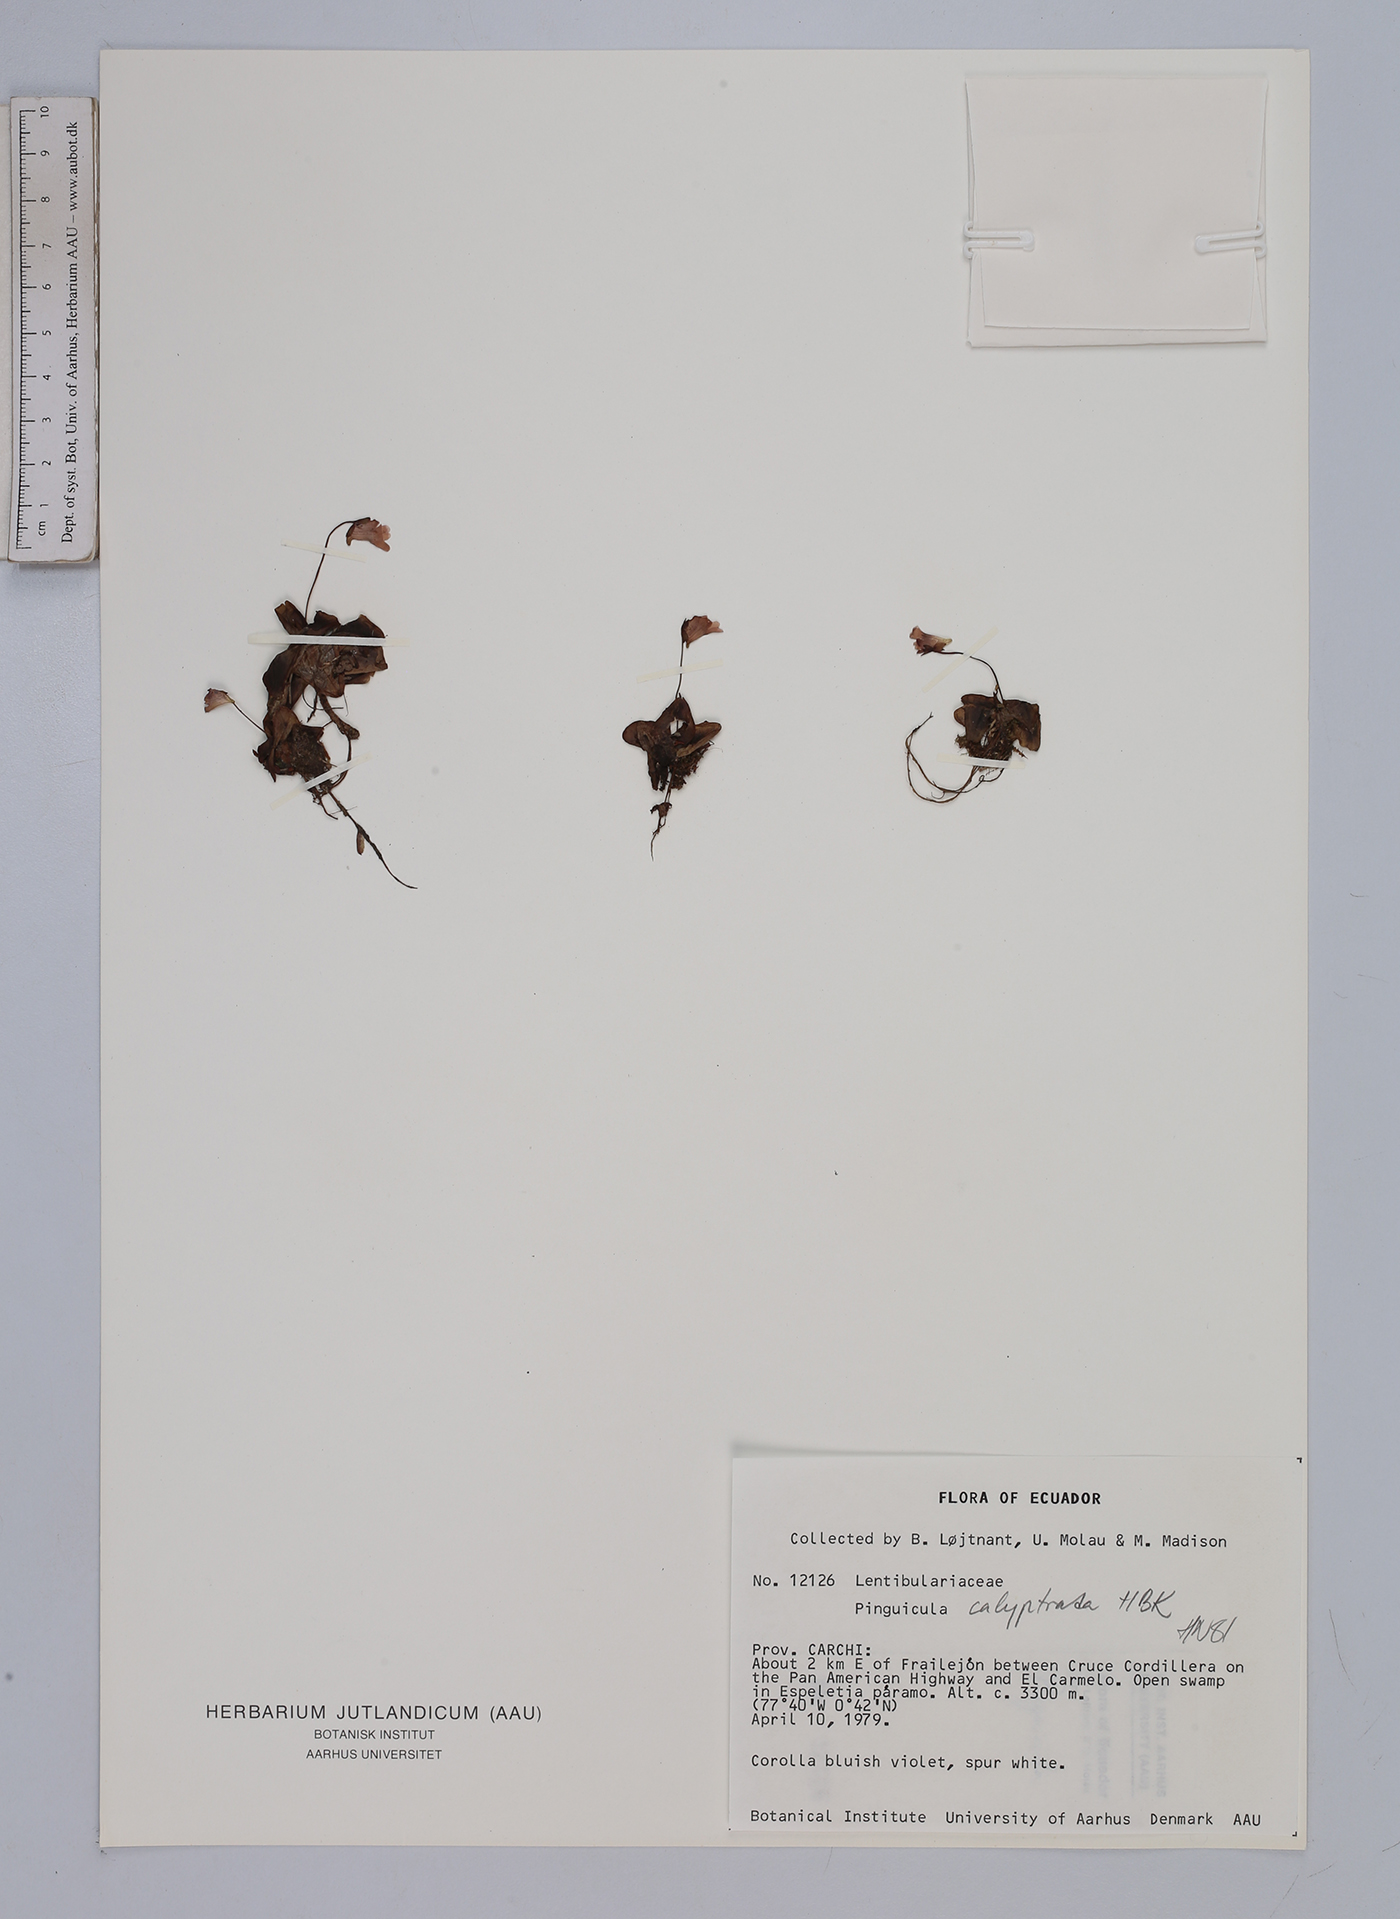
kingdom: Plantae
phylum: Tracheophyta
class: Magnoliopsida
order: Lamiales
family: Lentibulariaceae
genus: Pinguicula
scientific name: Pinguicula calyptrata
